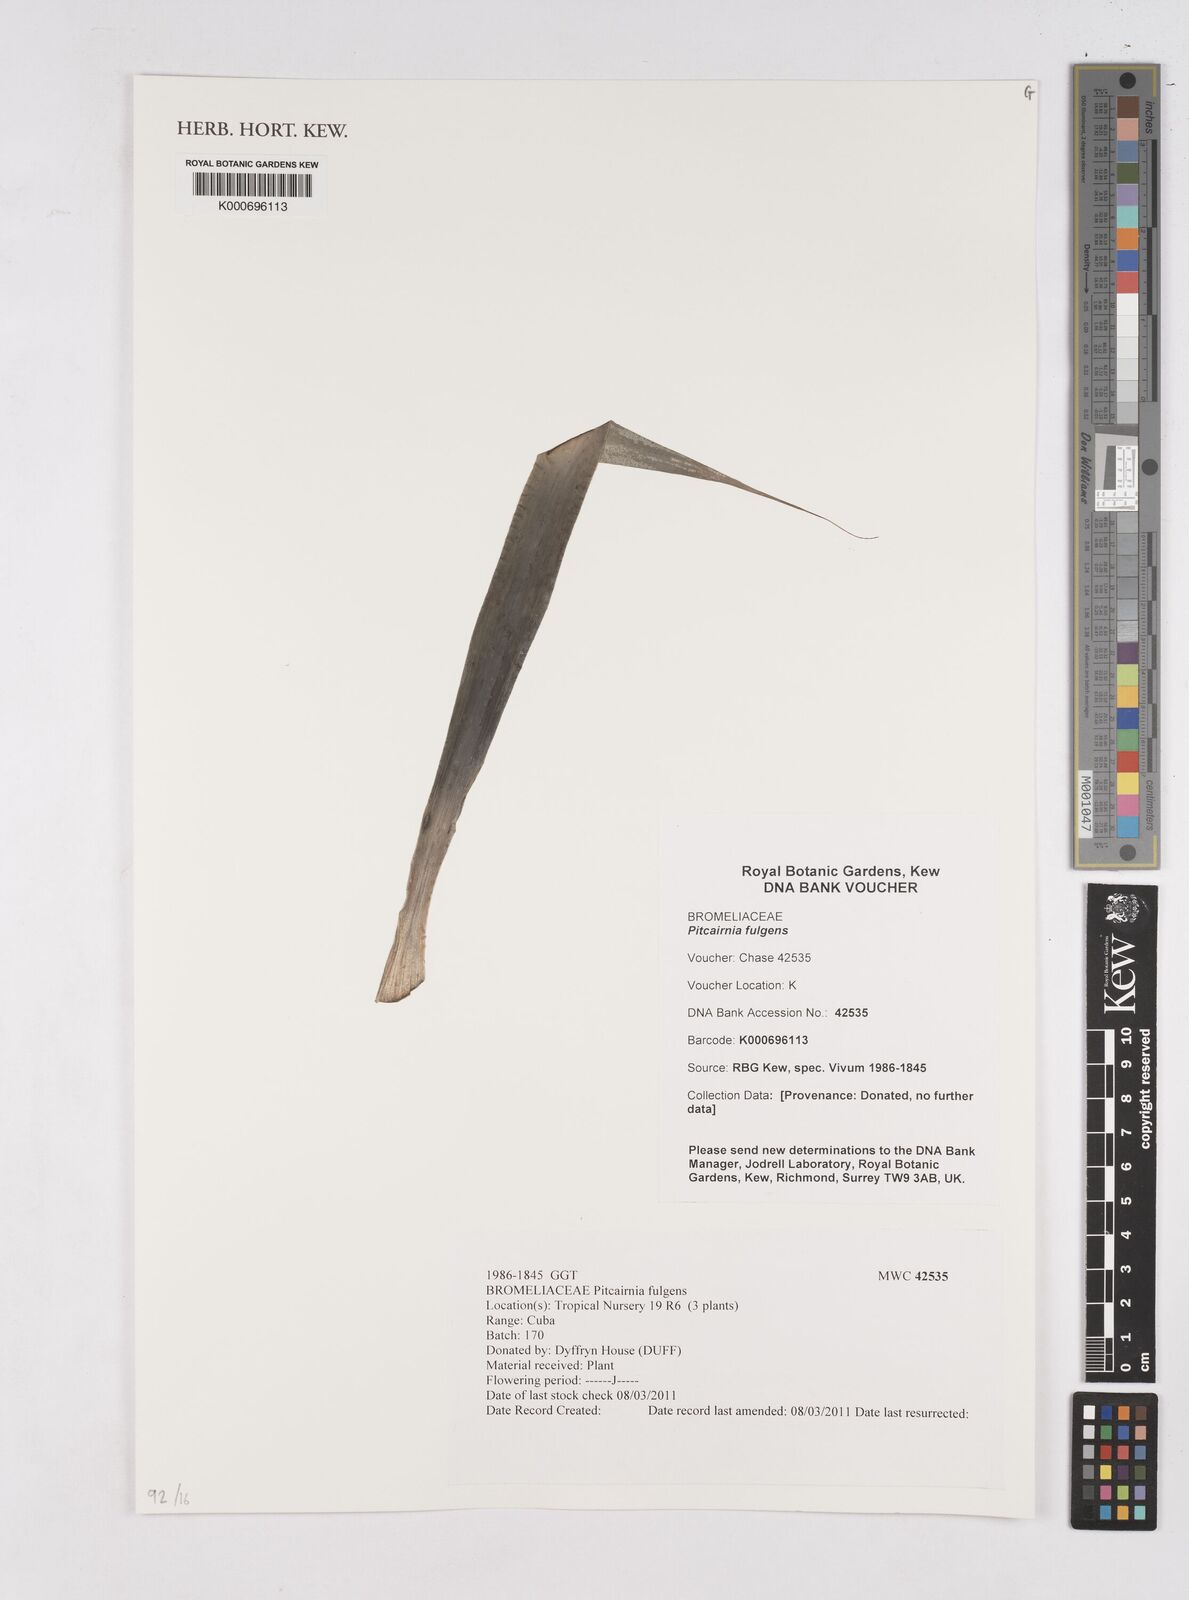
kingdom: Plantae
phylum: Tracheophyta
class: Liliopsida
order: Poales
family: Bromeliaceae
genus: Pitcairnia
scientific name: Pitcairnia flammea
